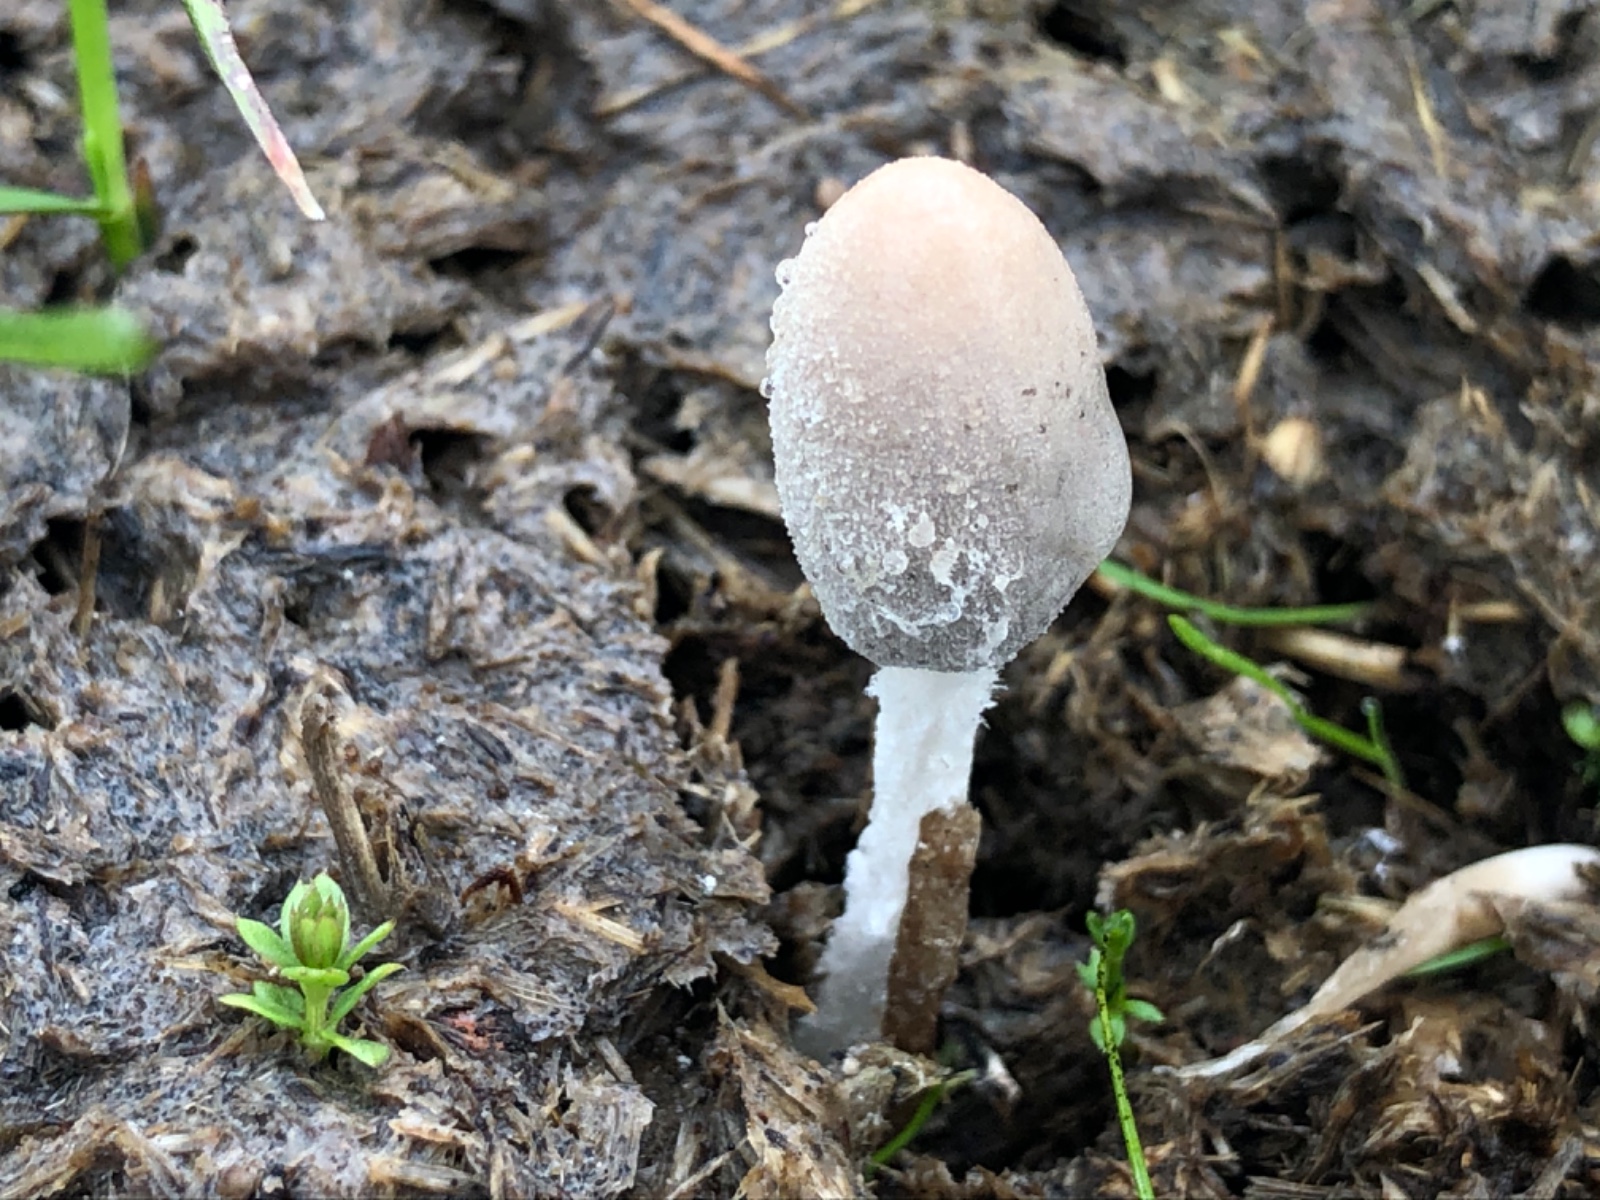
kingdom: Fungi
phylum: Basidiomycota
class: Agaricomycetes
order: Agaricales
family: Psathyrellaceae
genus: Coprinopsis
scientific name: Coprinopsis
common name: blækhat
